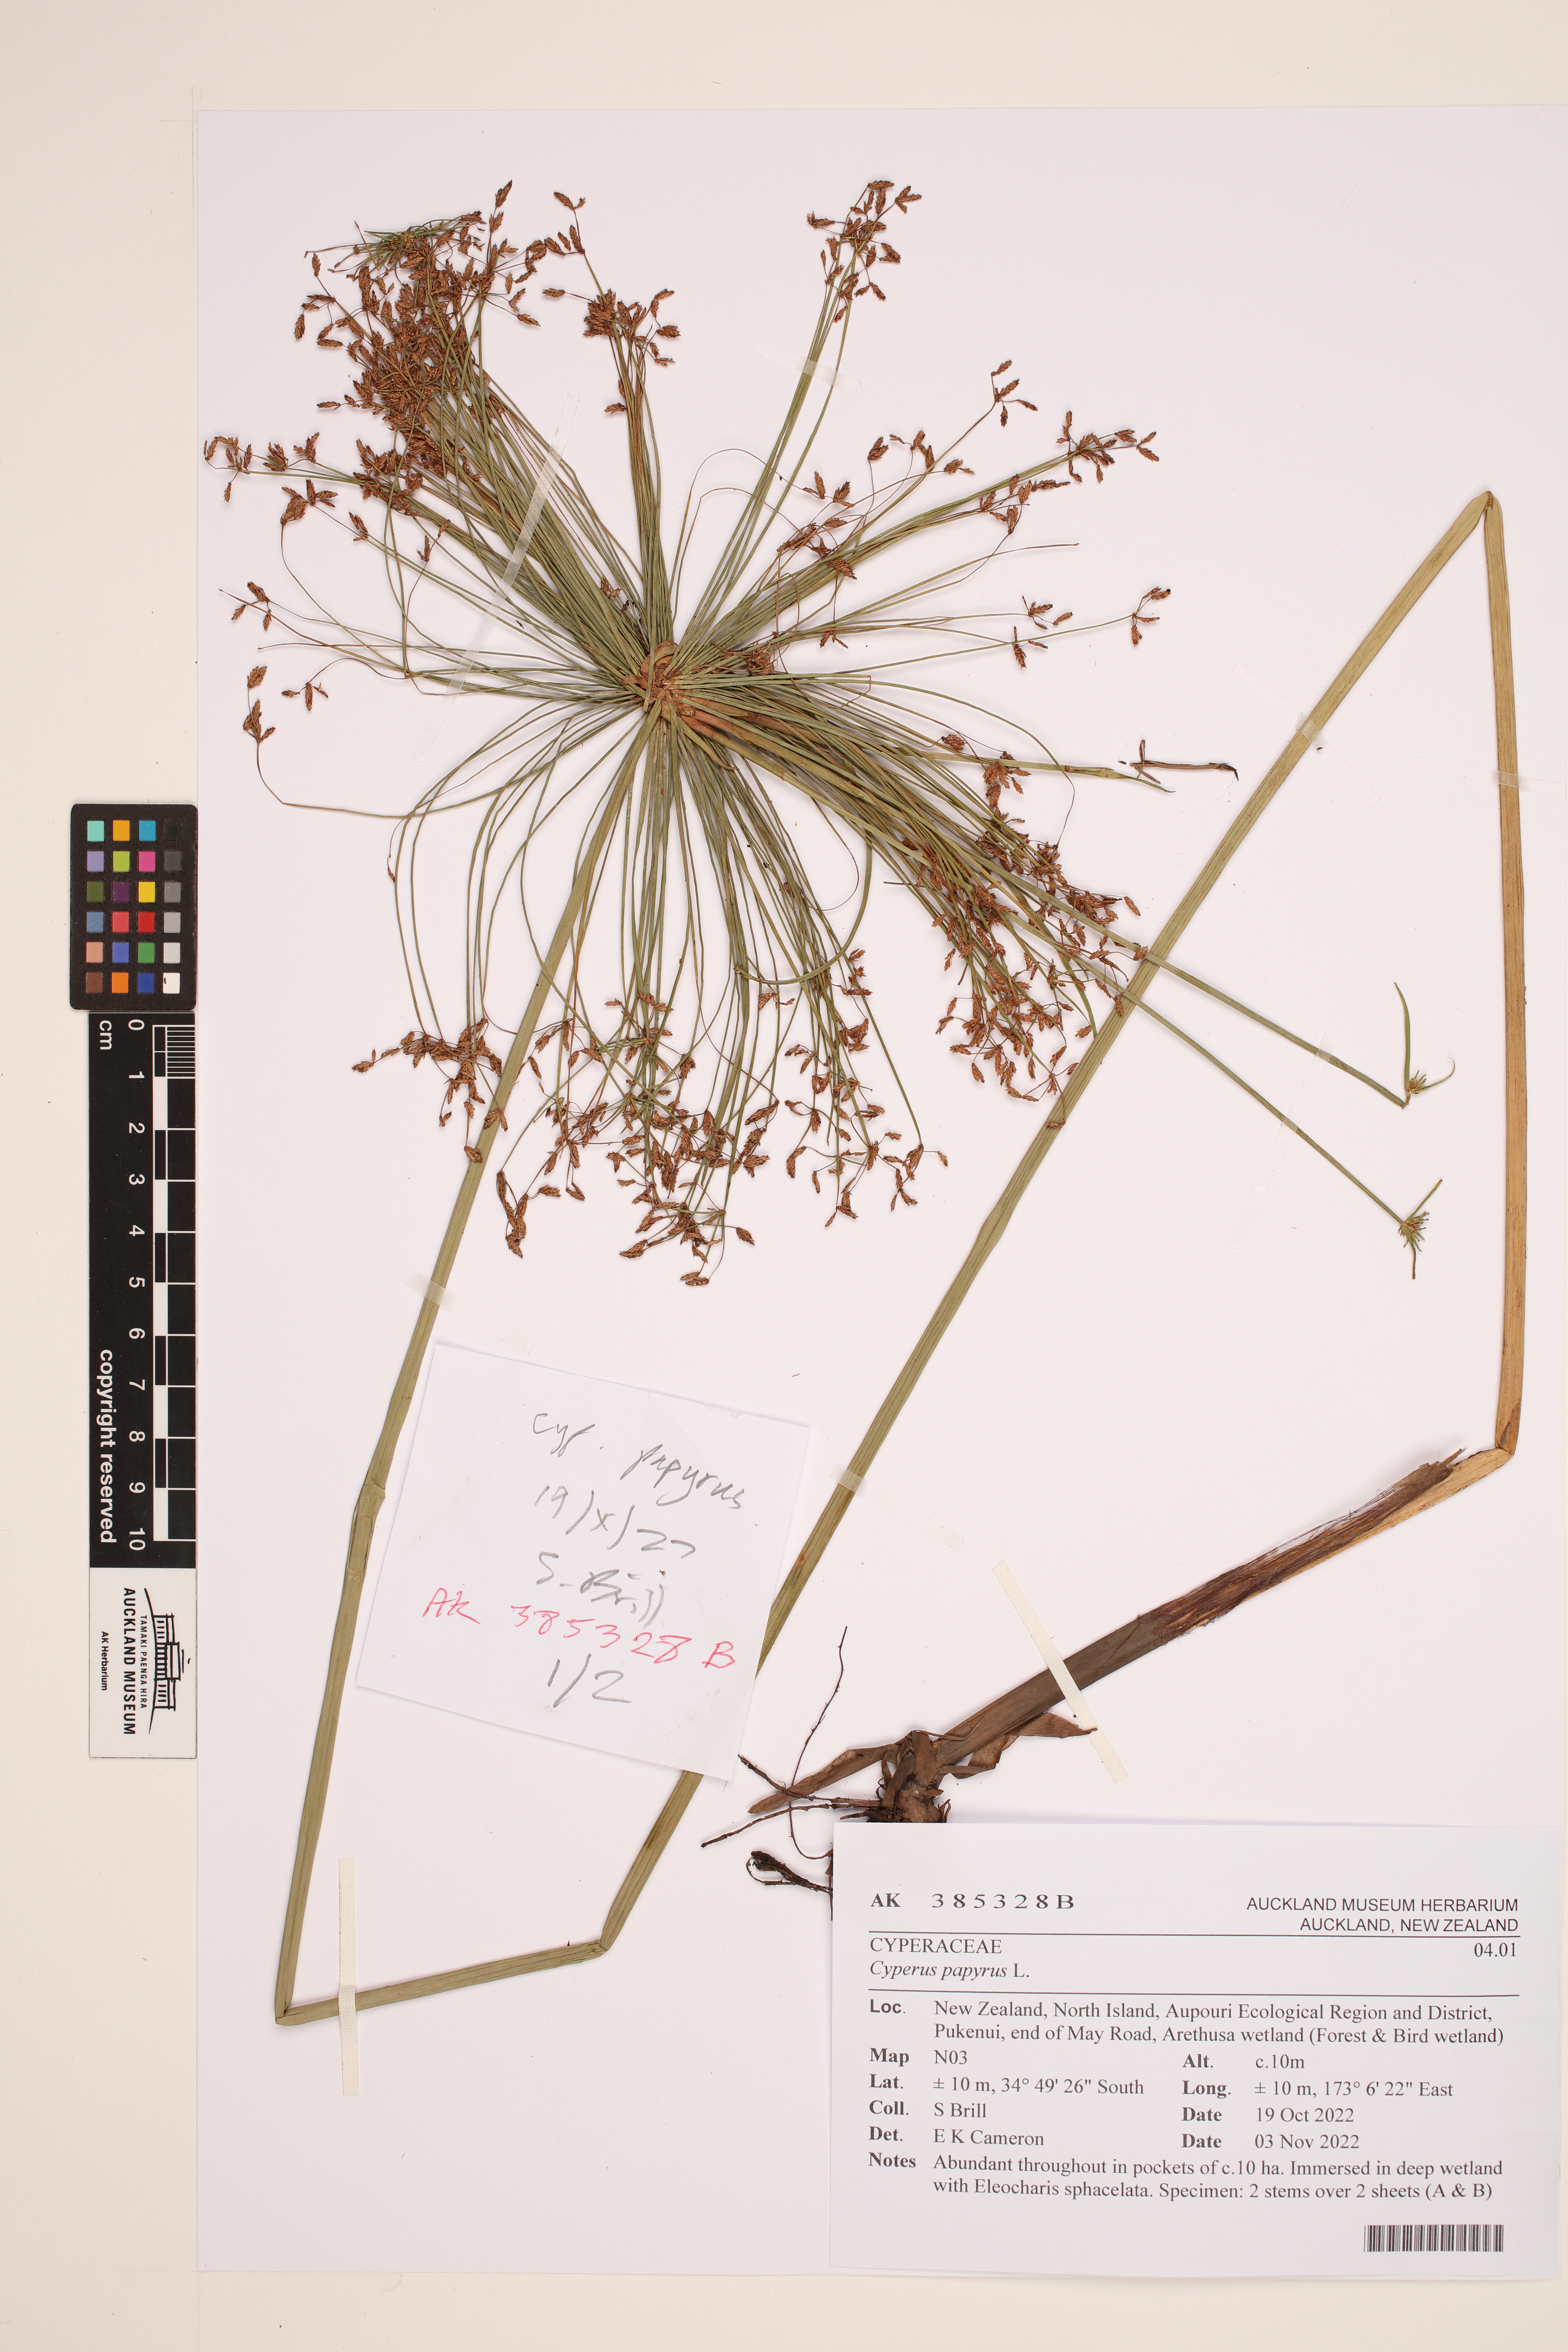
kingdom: Plantae
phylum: Tracheophyta
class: Liliopsida
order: Poales
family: Cyperaceae
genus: Cyperus
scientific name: Cyperus papyrus
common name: Papyrus
